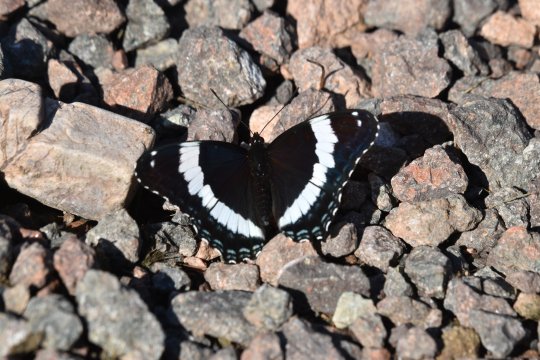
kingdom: Animalia
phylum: Arthropoda
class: Insecta
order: Lepidoptera
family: Nymphalidae
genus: Limenitis
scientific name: Limenitis arthemis
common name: Red-spotted Admiral
